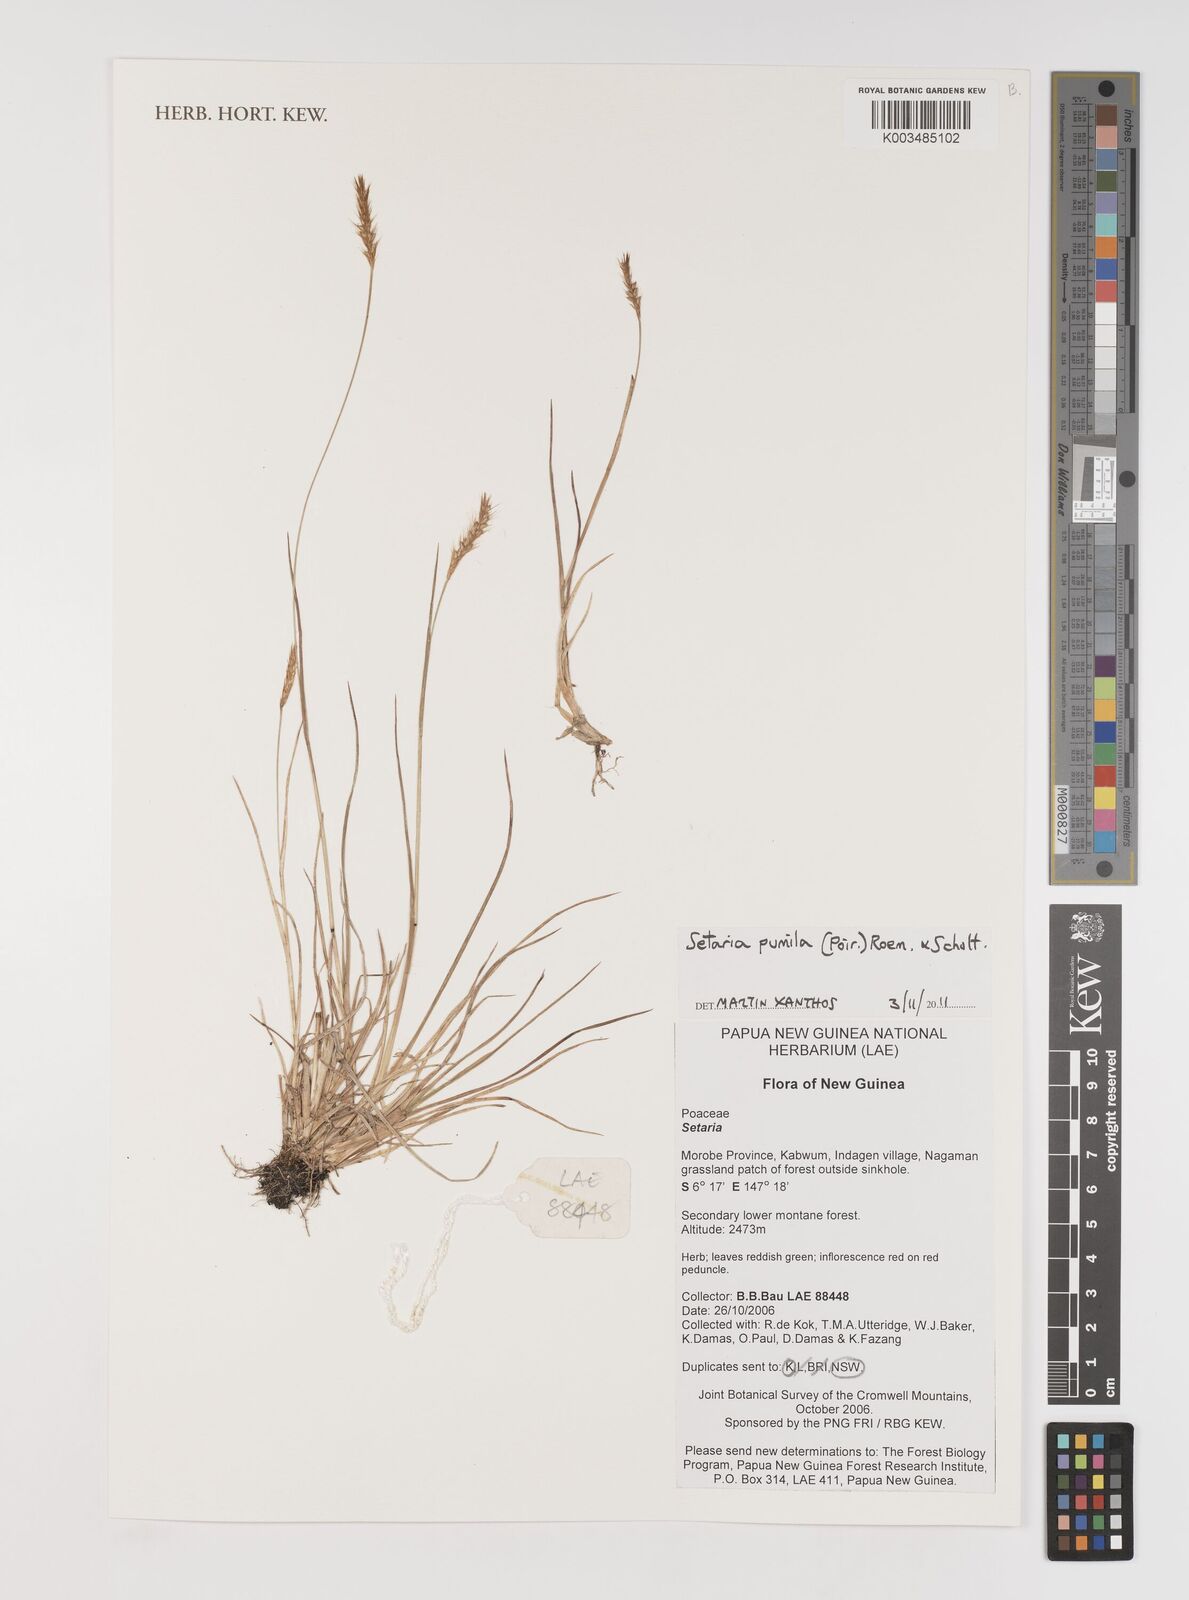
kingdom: Plantae
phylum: Tracheophyta
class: Liliopsida
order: Poales
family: Poaceae
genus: Setaria
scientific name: Setaria parviflora
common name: Knotroot bristle-grass
